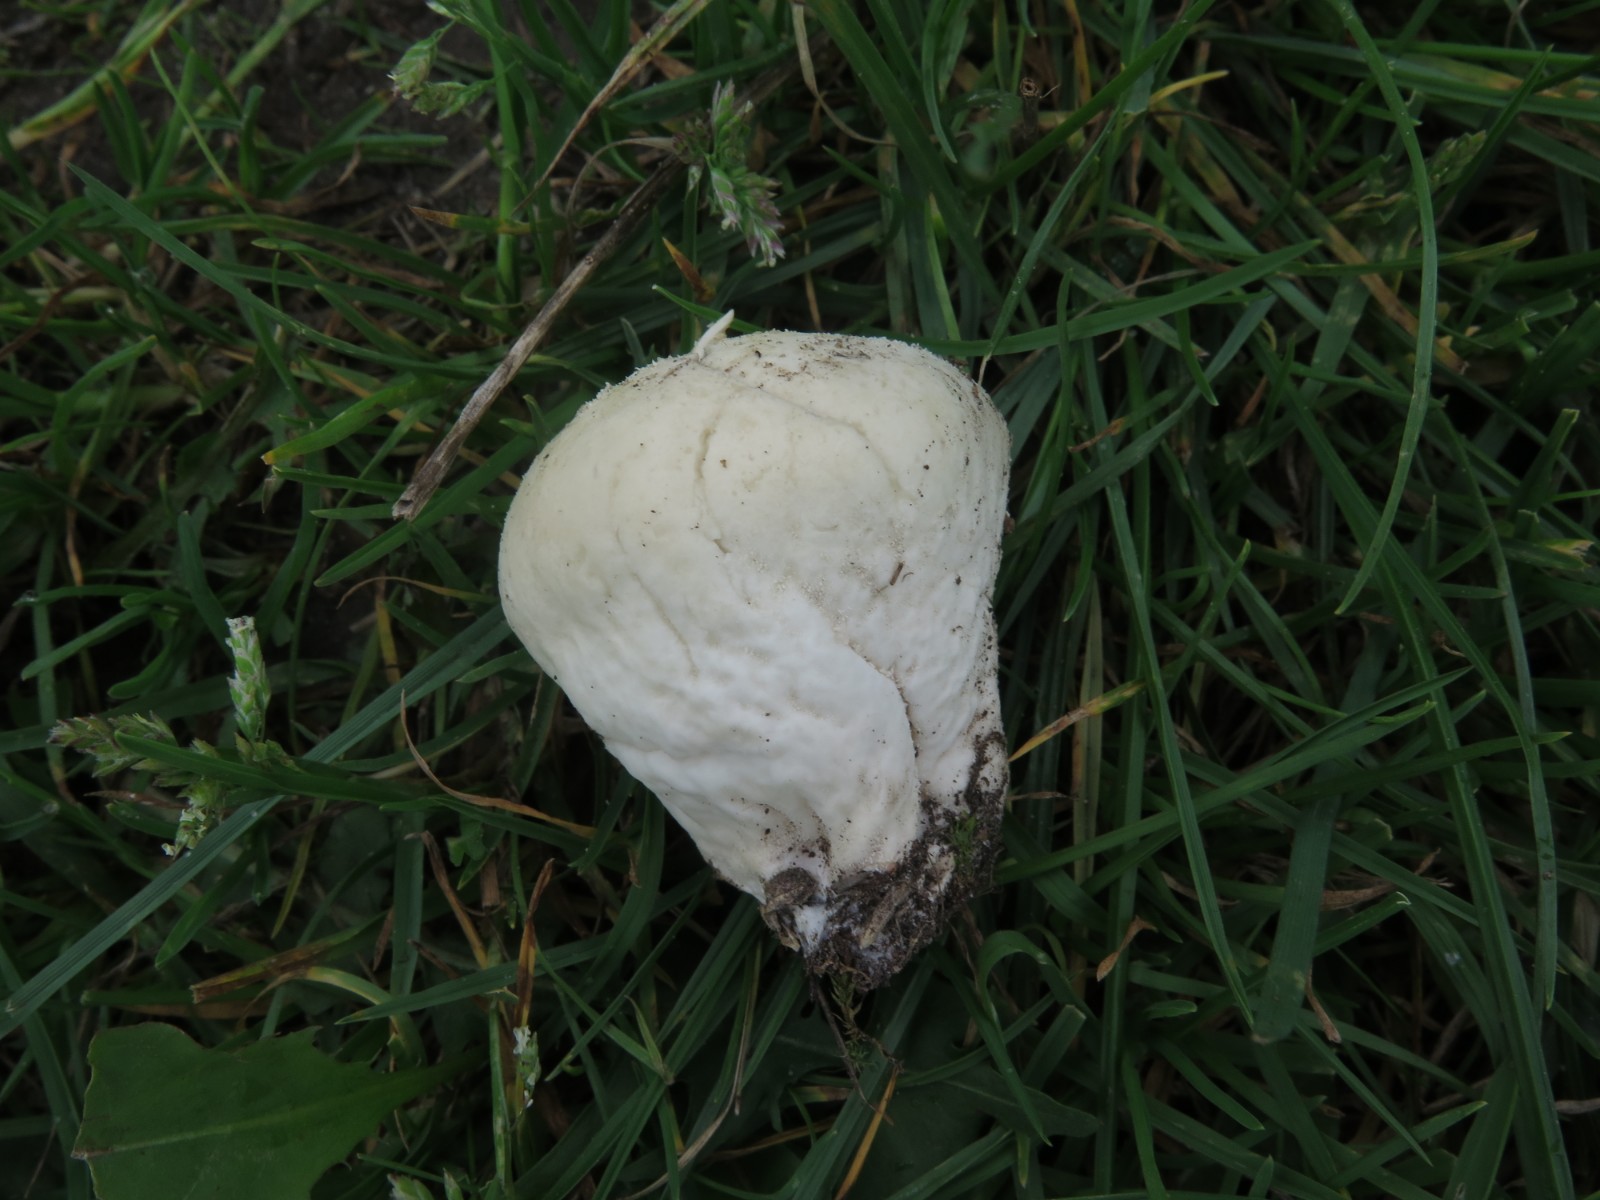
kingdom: Fungi
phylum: Basidiomycota
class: Agaricomycetes
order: Agaricales
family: Lycoperdaceae
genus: Lycoperdon
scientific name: Lycoperdon pratense
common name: flad støvbold
